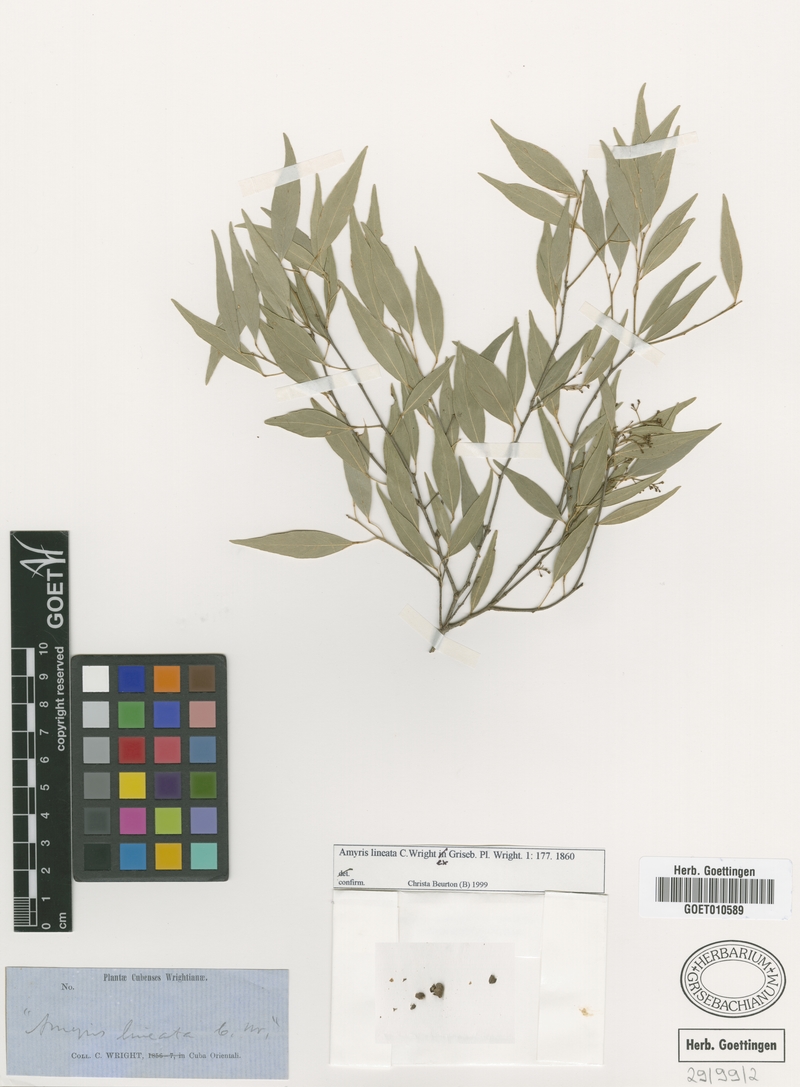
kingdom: Plantae
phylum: Tracheophyta
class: Magnoliopsida
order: Sapindales
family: Rutaceae
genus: Amyris
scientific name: Amyris lineata
